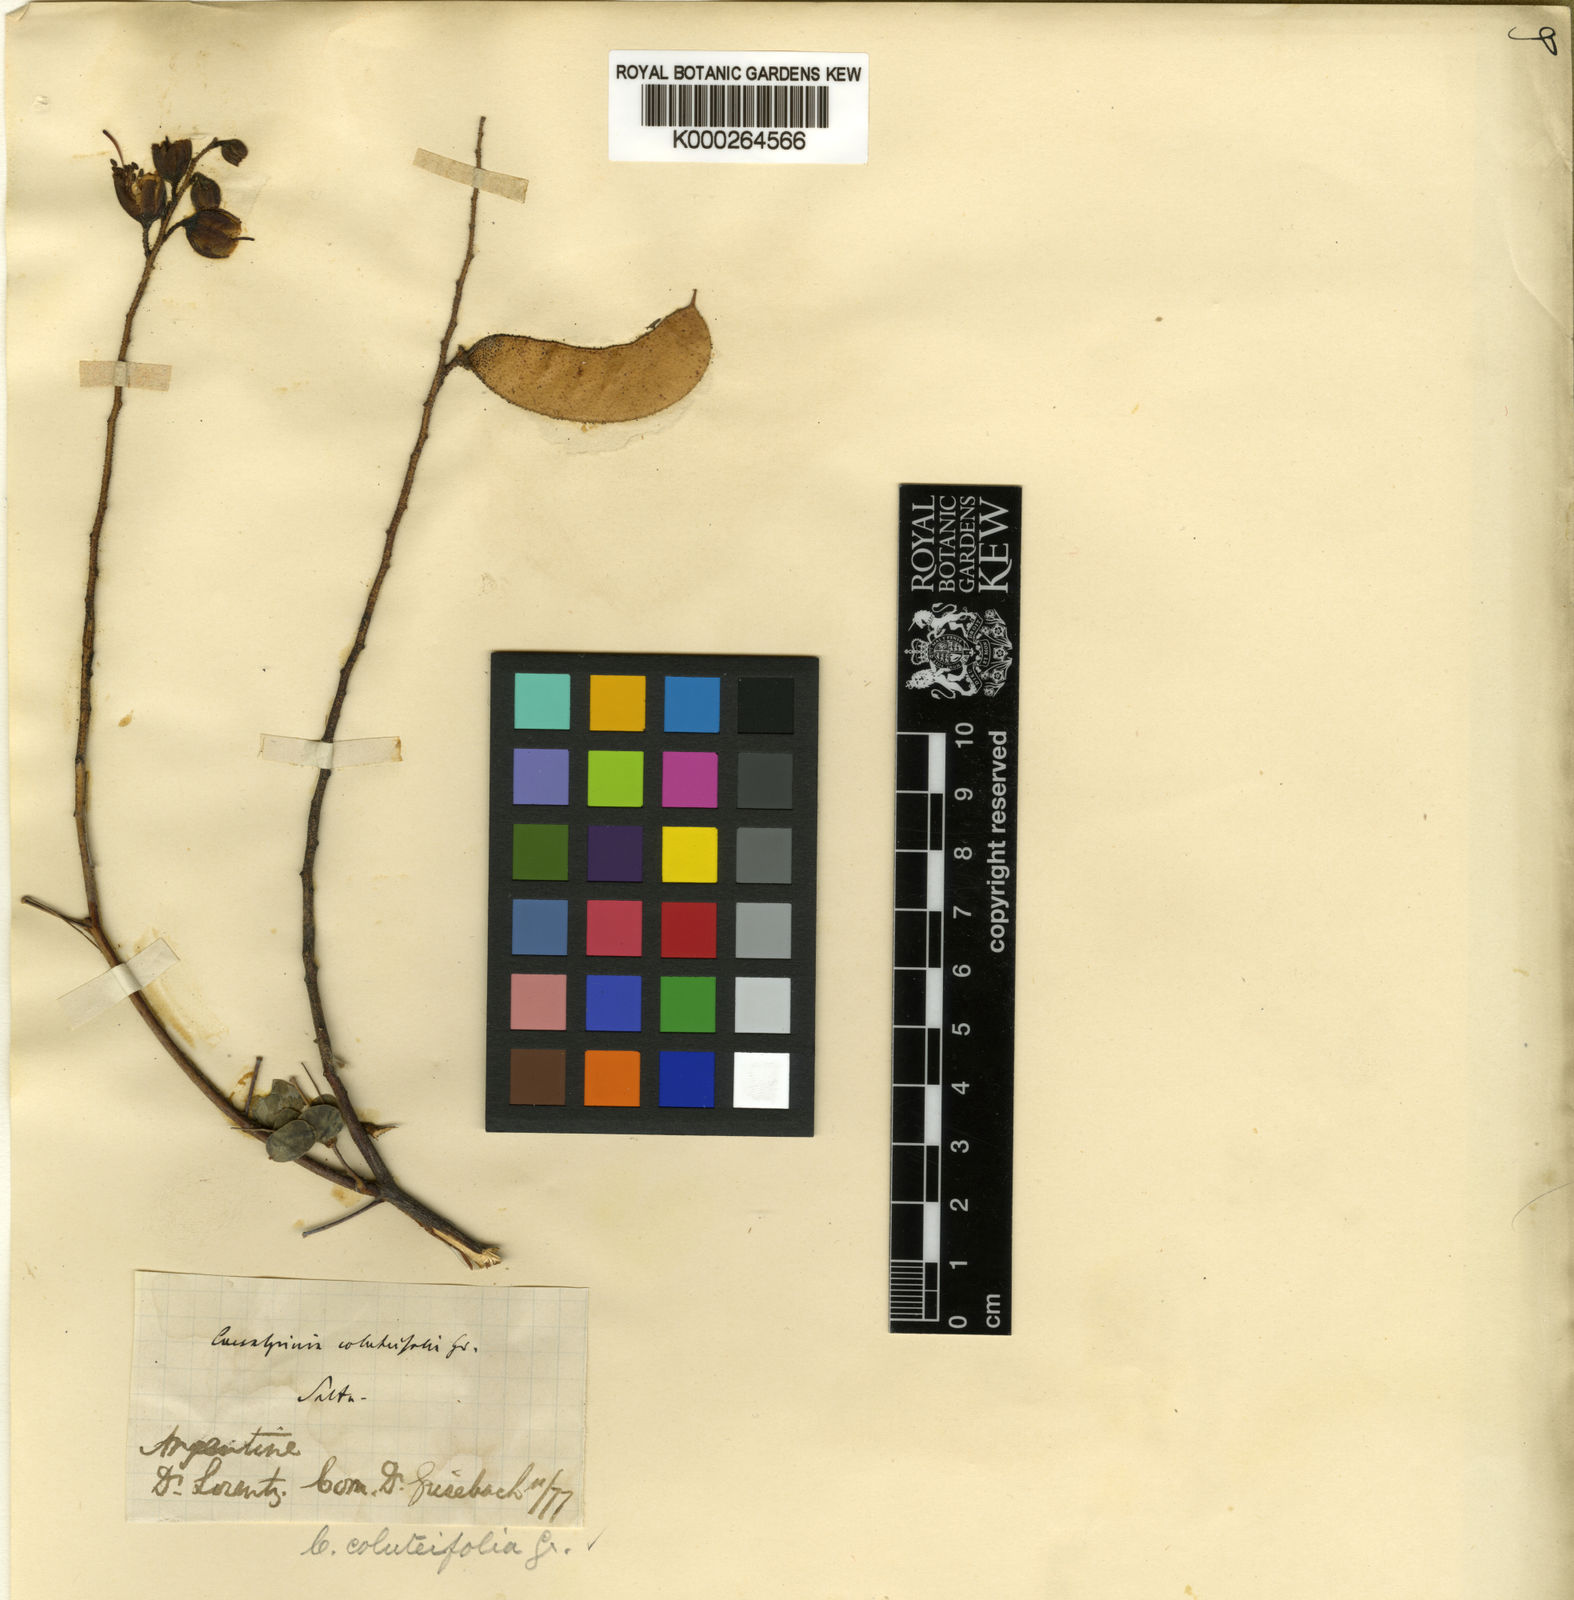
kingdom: Plantae
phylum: Tracheophyta
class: Magnoliopsida
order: Fabales
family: Fabaceae
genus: Erythrostemon
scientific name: Erythrostemon coluteifolius
